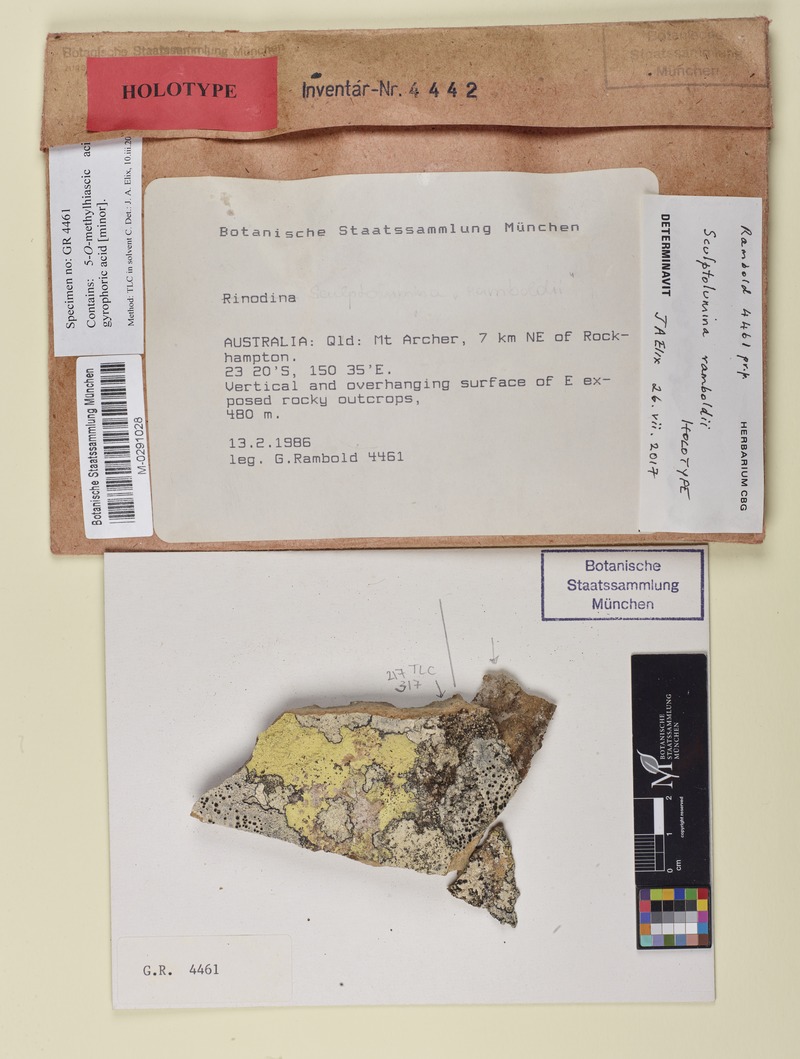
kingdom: Fungi
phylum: Ascomycota
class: Lecanoromycetes
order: Caliciales
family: Caliciaceae
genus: Sculptolumina
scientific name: Sculptolumina ramboldii
